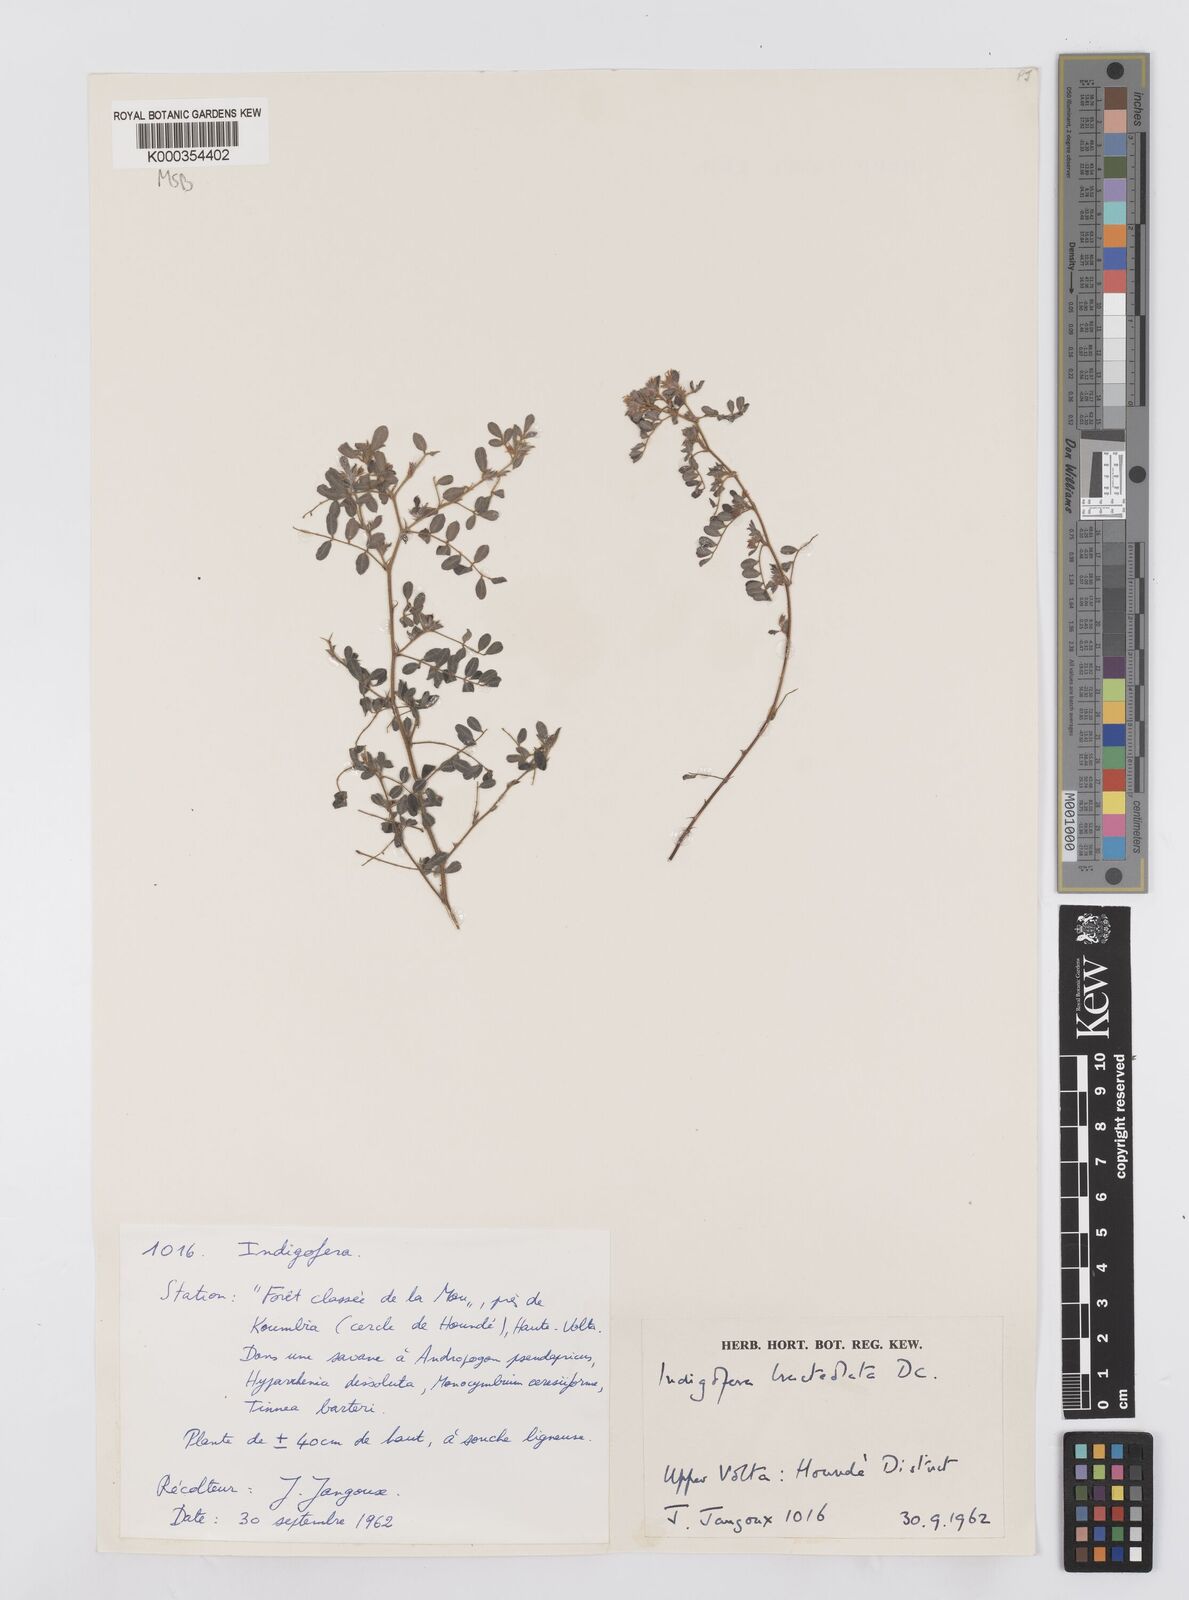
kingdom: Plantae
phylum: Tracheophyta
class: Magnoliopsida
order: Fabales
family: Fabaceae
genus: Indigofera
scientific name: Indigofera bracteolata
